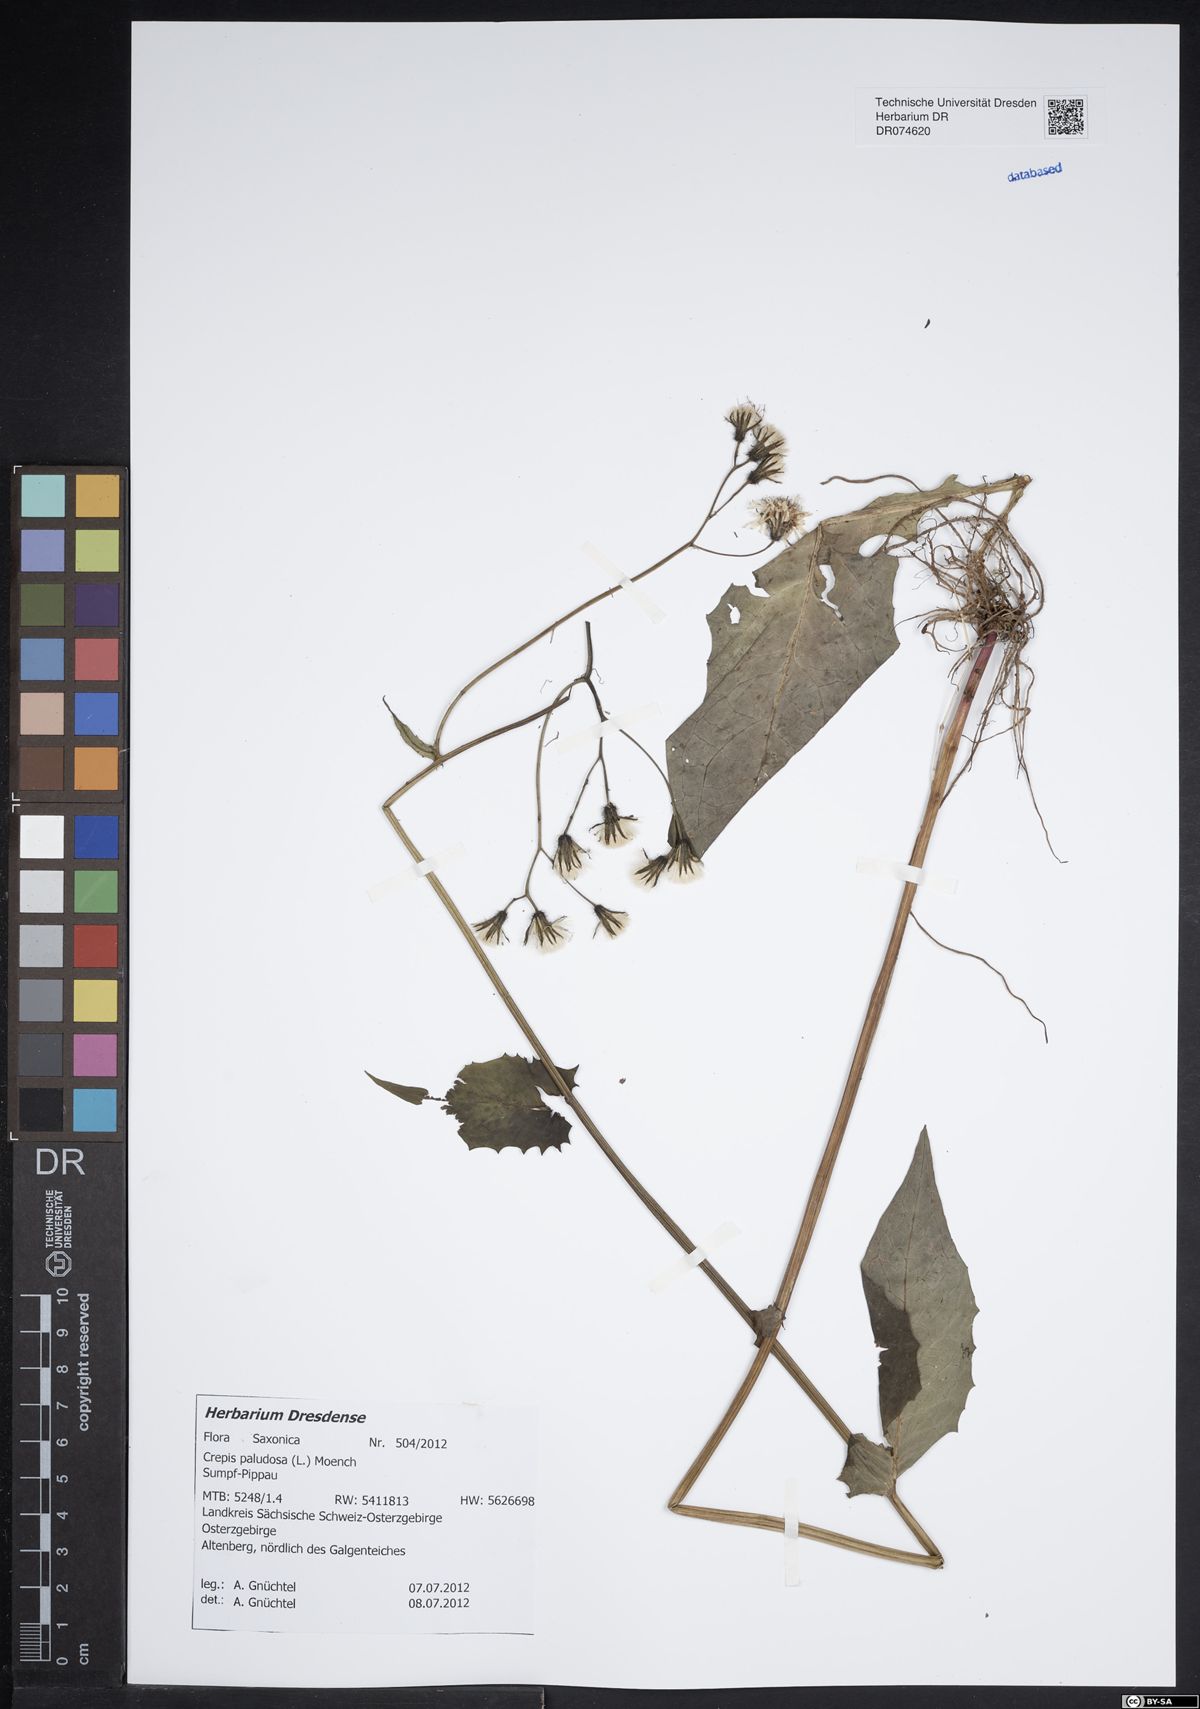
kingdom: Plantae
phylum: Tracheophyta
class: Magnoliopsida
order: Asterales
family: Asteraceae
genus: Crepis
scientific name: Crepis paludosa
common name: Marsh hawk's-beard
